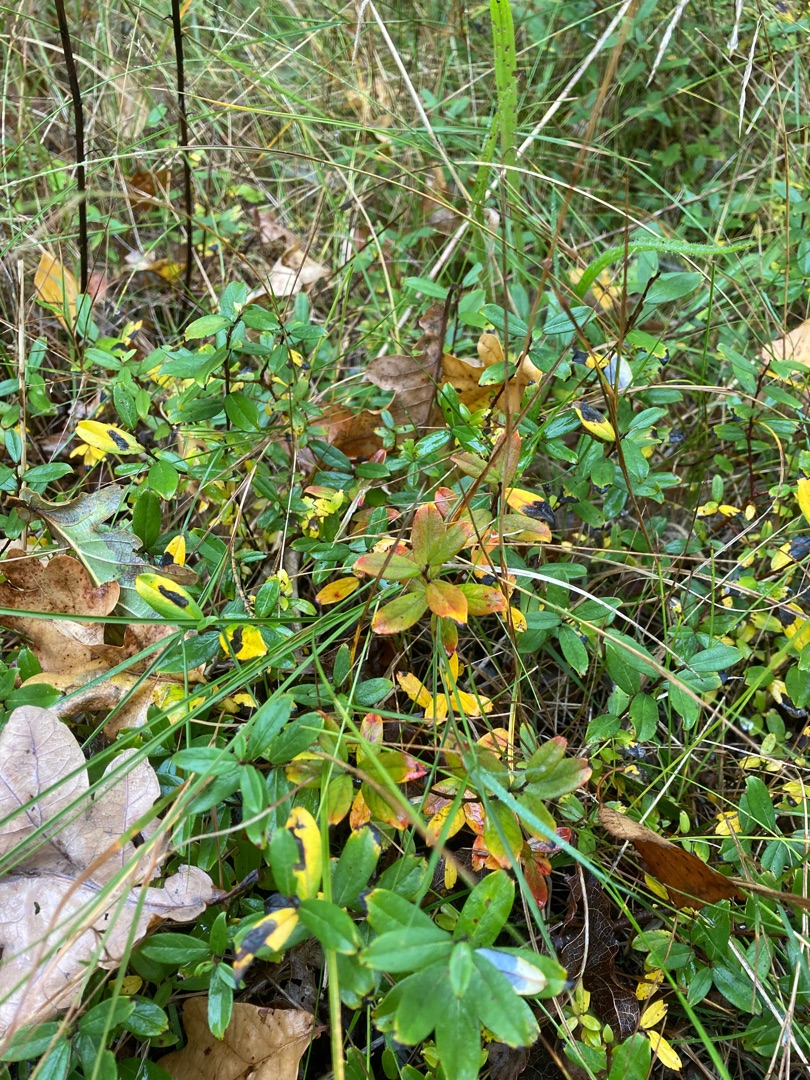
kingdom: Plantae
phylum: Tracheophyta
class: Magnoliopsida
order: Malpighiales
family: Salicaceae
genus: Salix
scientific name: Salix repens
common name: Krybende pil
